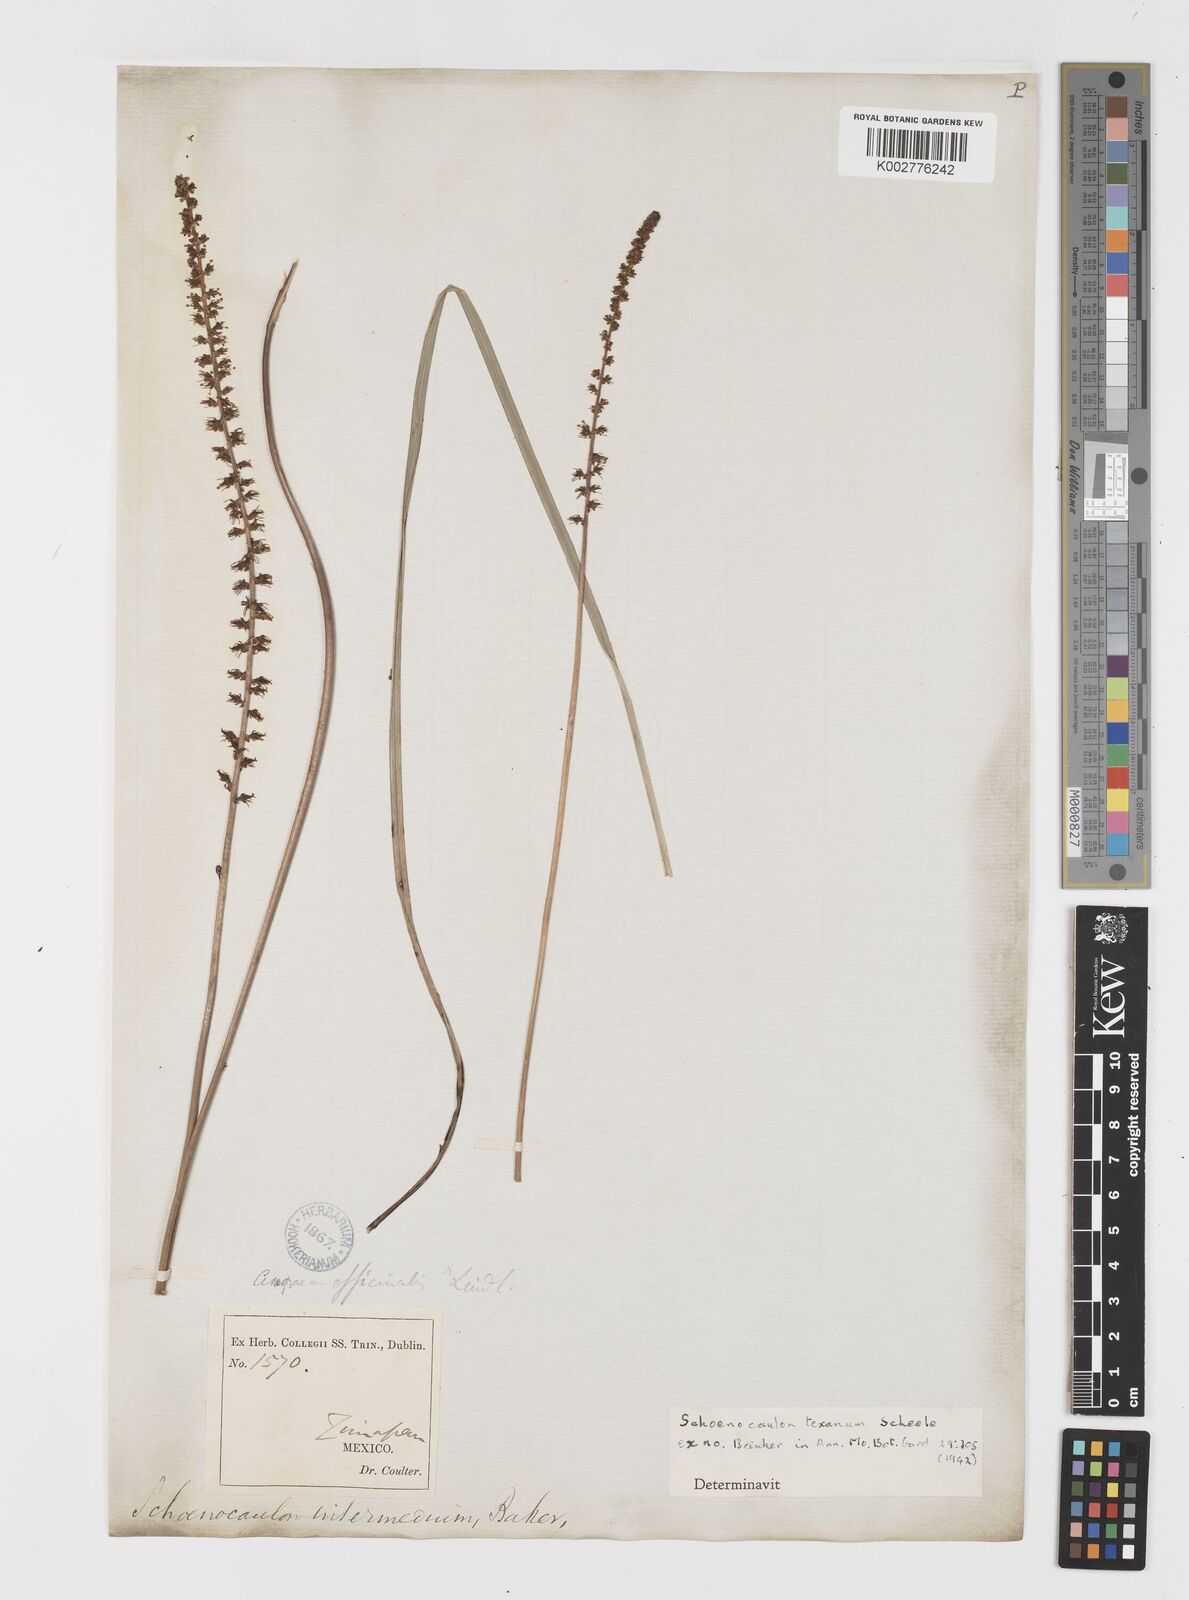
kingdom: Plantae
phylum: Tracheophyta
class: Liliopsida
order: Liliales
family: Melanthiaceae
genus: Schoenocaulon
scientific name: Schoenocaulon caricifolium
